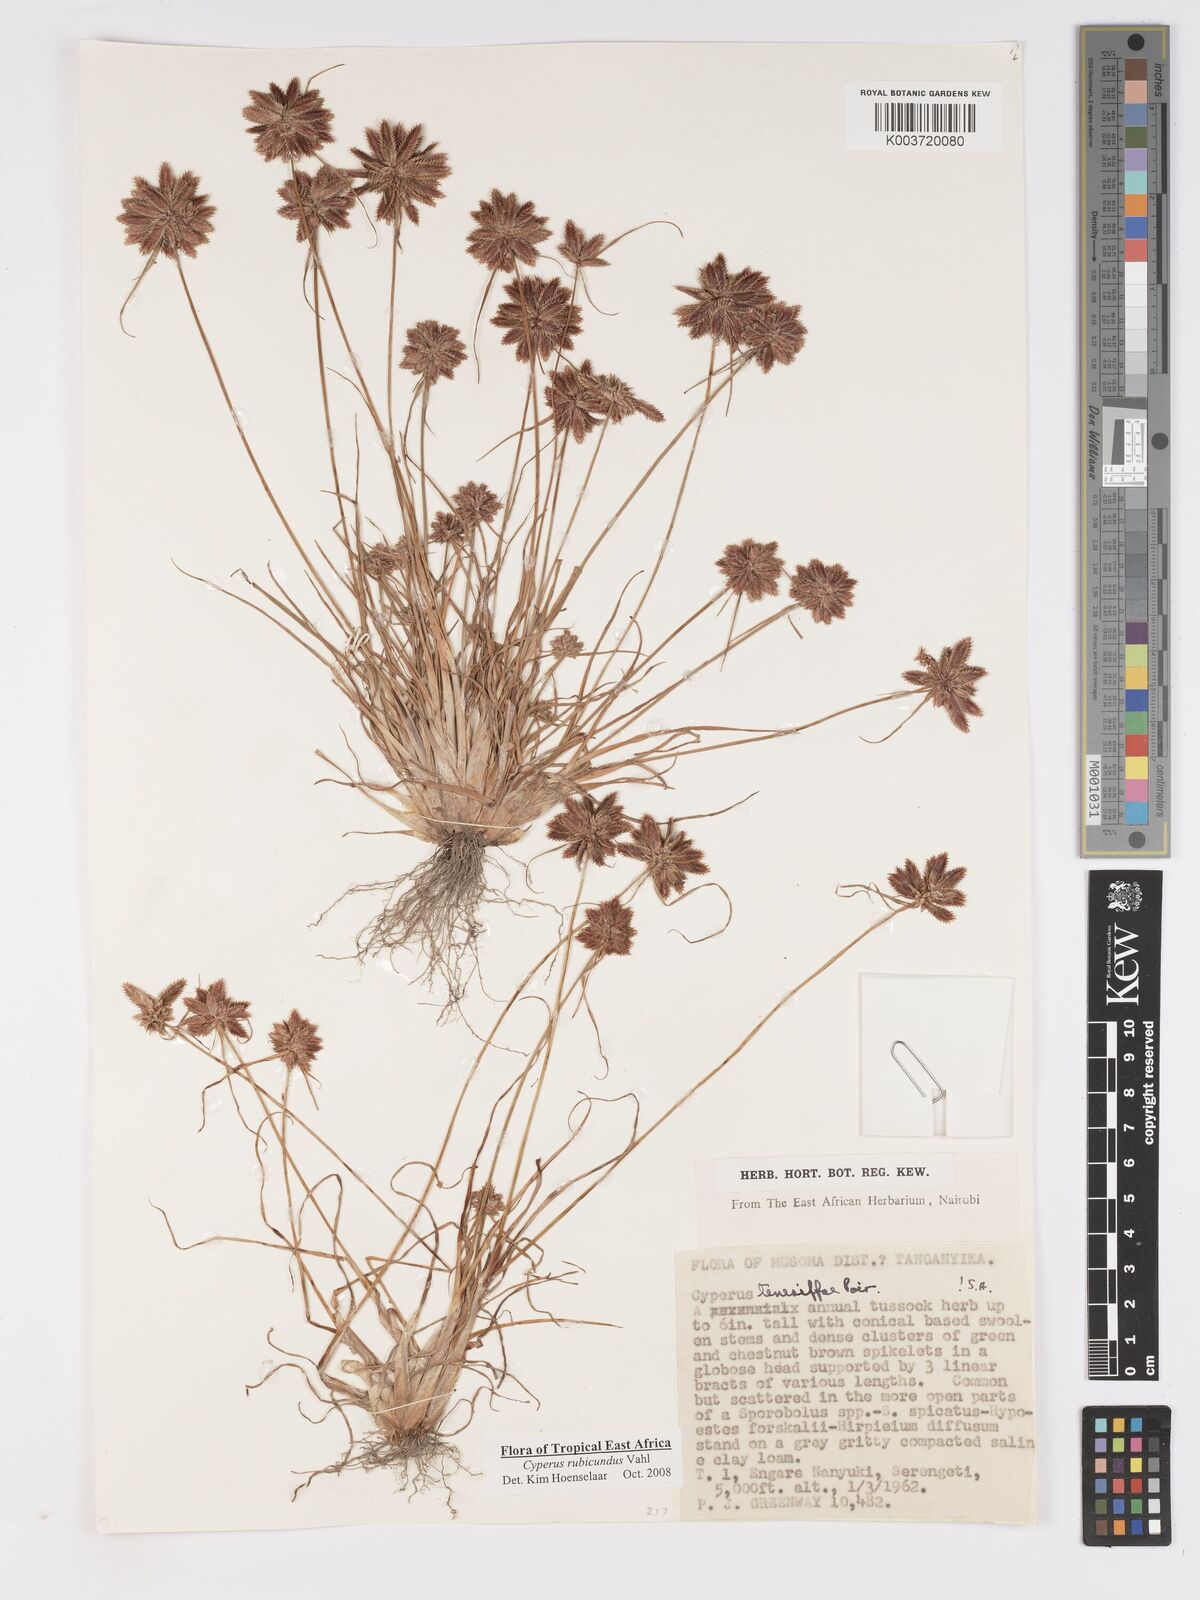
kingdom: Plantae
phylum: Tracheophyta
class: Liliopsida
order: Poales
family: Cyperaceae
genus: Cyperus
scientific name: Cyperus rubicundus
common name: Coco-grass
